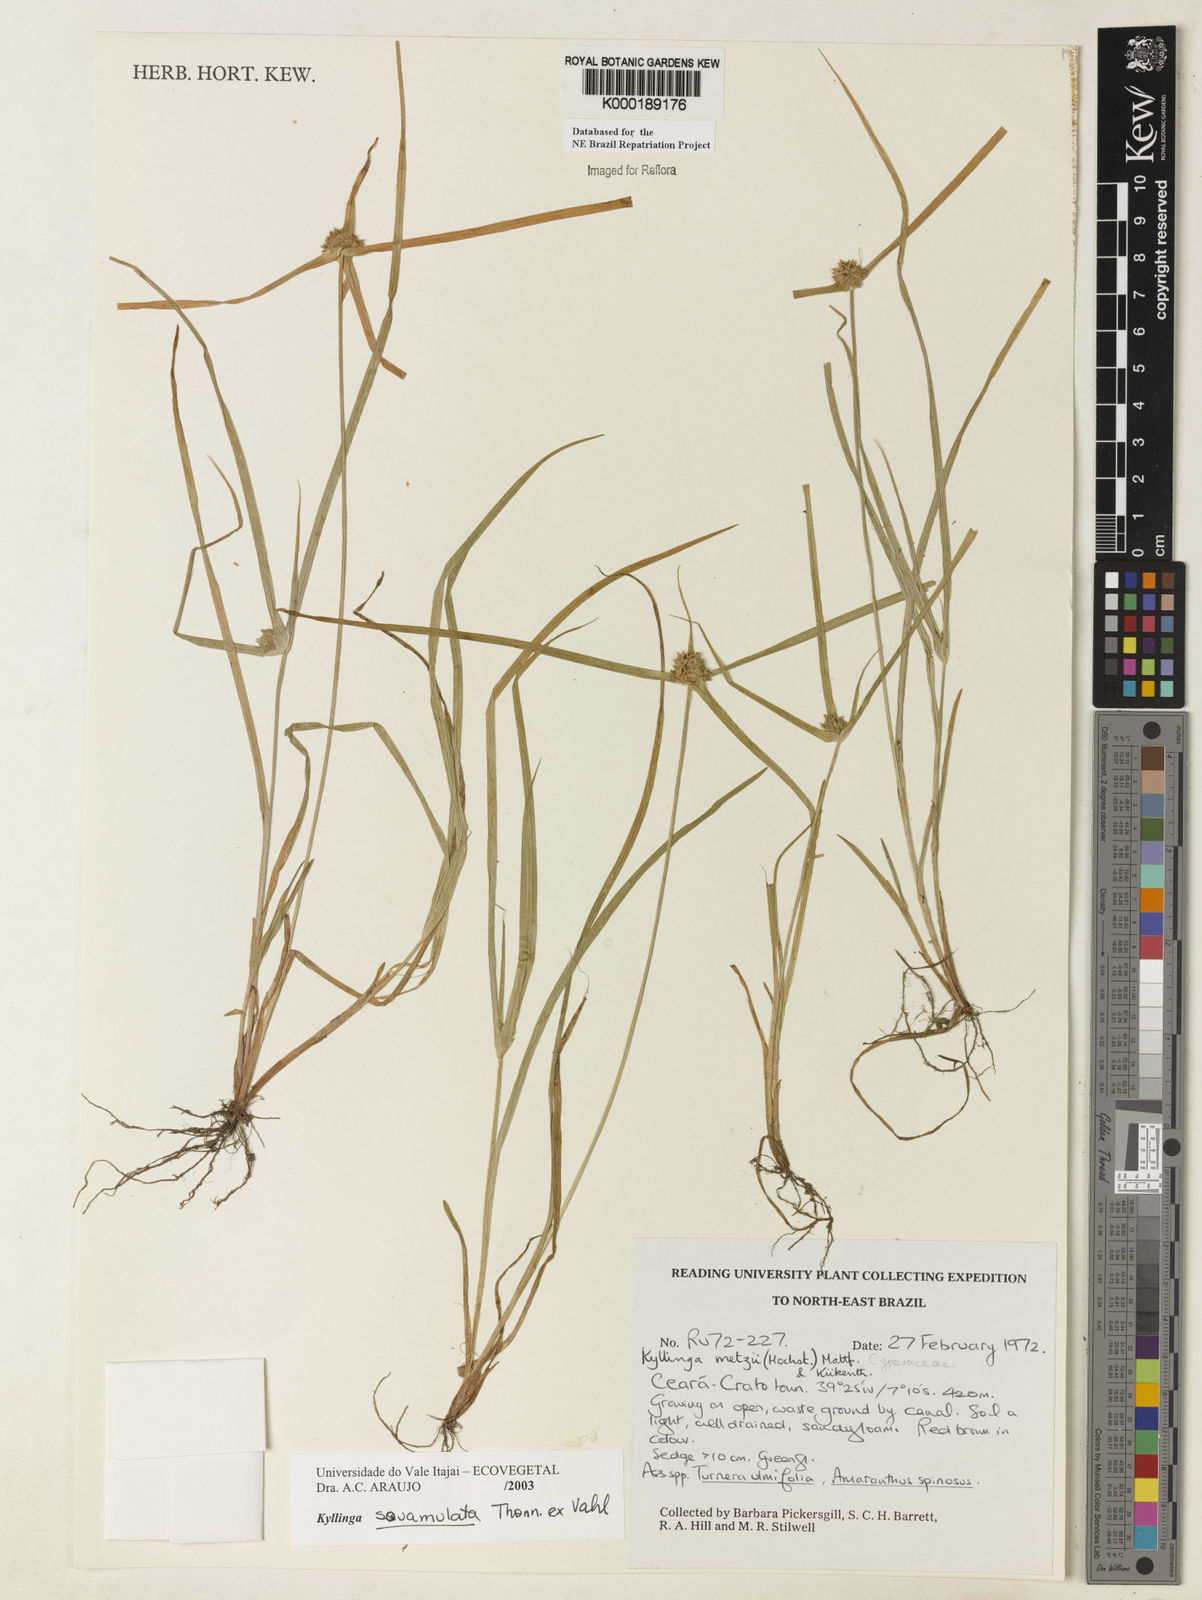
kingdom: Plantae
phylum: Tracheophyta
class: Liliopsida
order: Poales
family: Cyperaceae
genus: Cyperus
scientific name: Cyperus metzii
